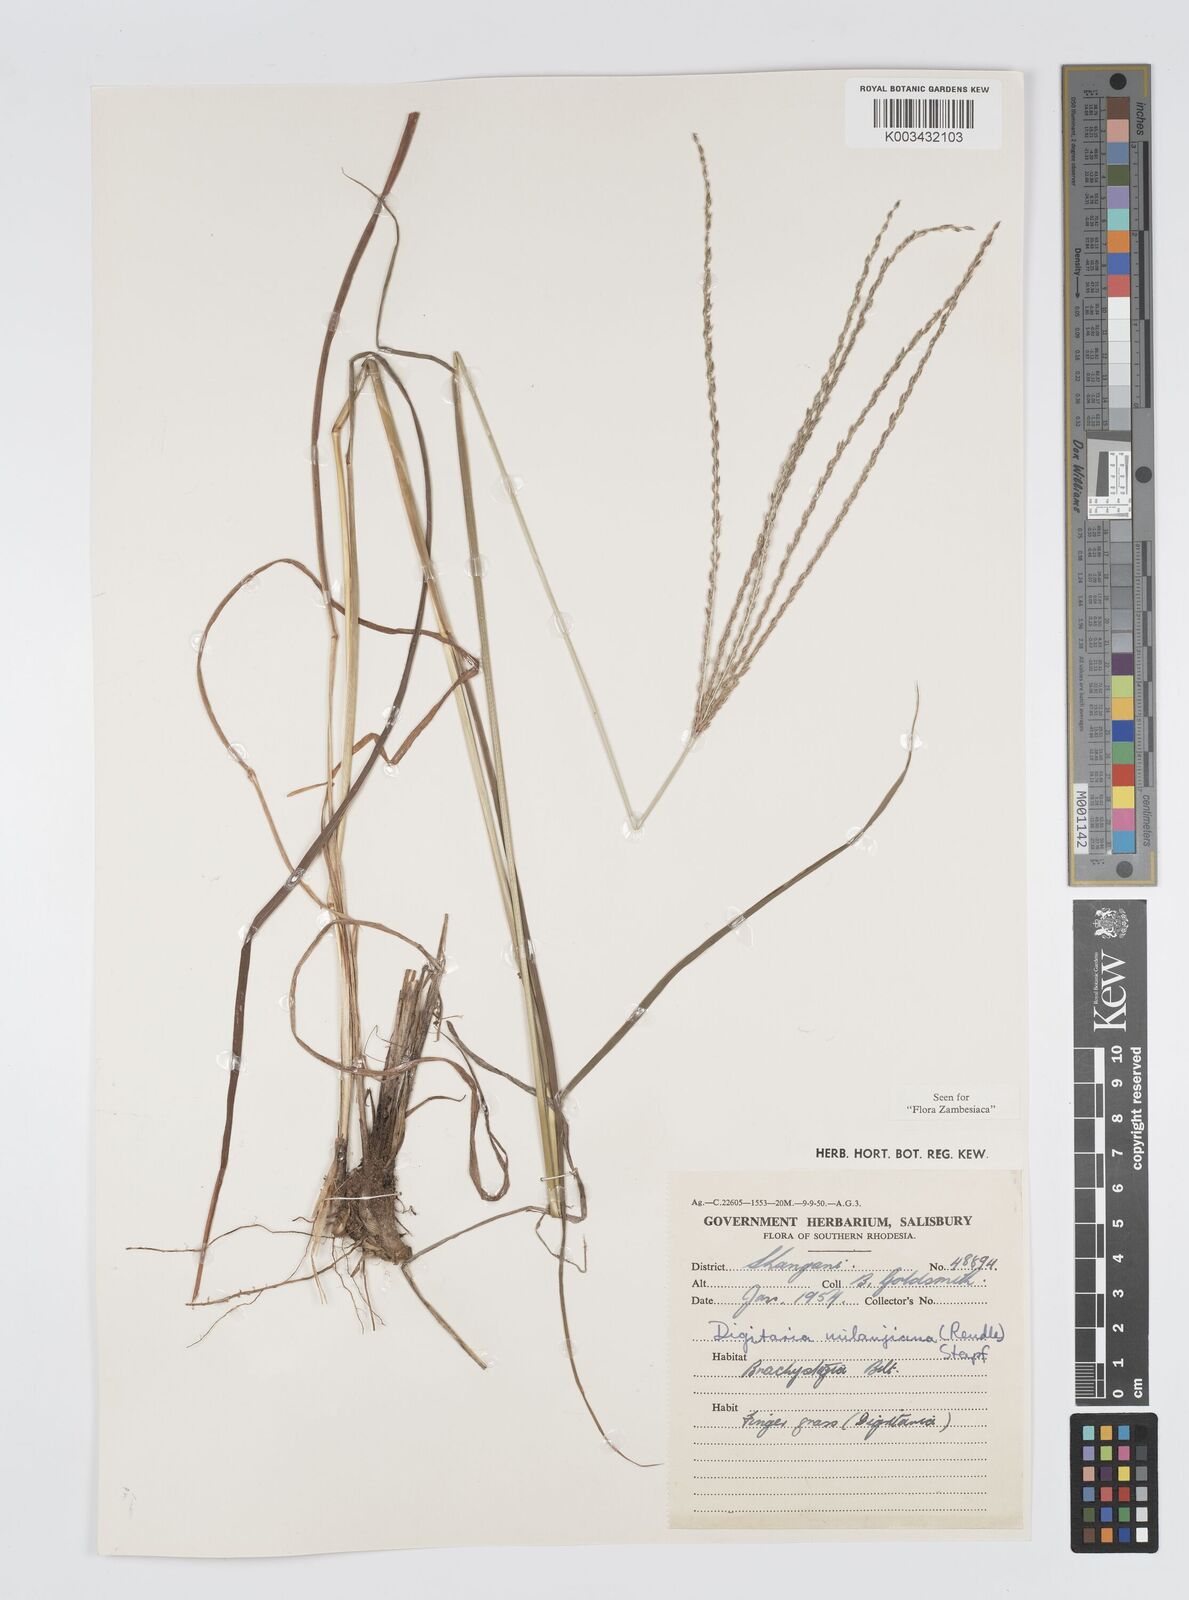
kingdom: Plantae
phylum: Tracheophyta
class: Liliopsida
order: Poales
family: Poaceae
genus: Digitaria
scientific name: Digitaria milanjiana
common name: Madagascar crabgrass
